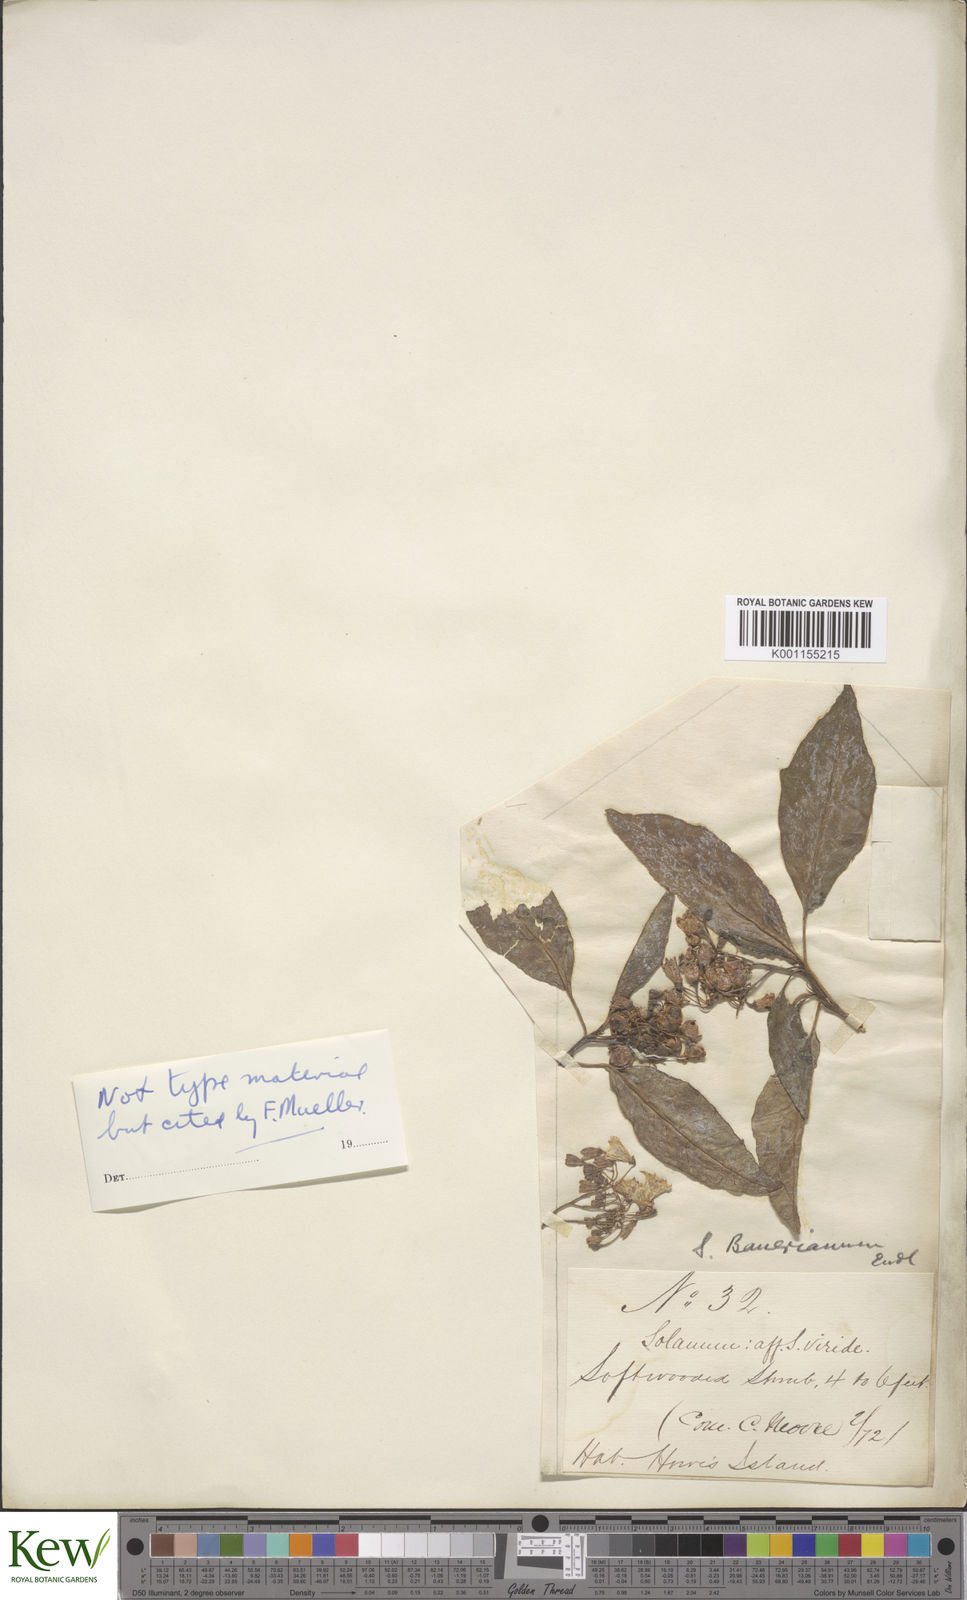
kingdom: Plantae
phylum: Tracheophyta
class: Magnoliopsida
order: Solanales
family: Solanaceae
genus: Solanum
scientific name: Solanum bauerianum
